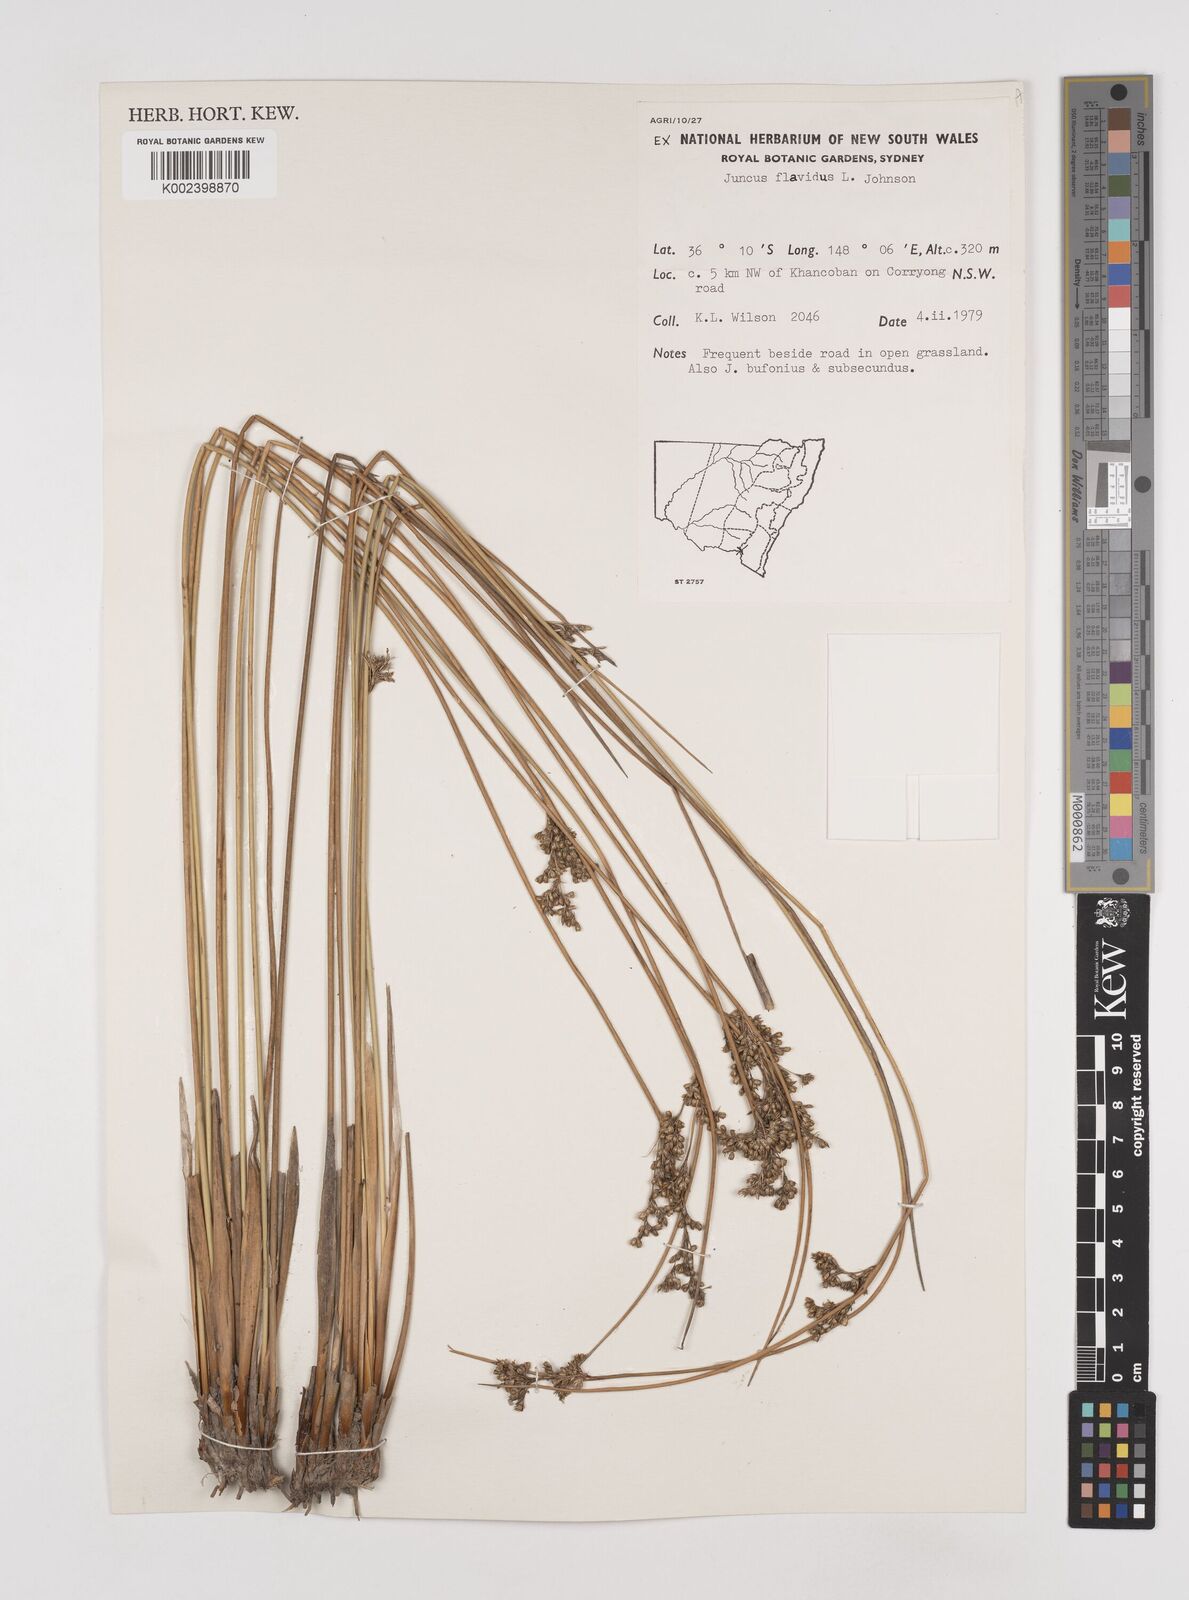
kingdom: Plantae
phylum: Tracheophyta
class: Liliopsida
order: Poales
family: Juncaceae
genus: Juncus
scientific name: Juncus flavidus
